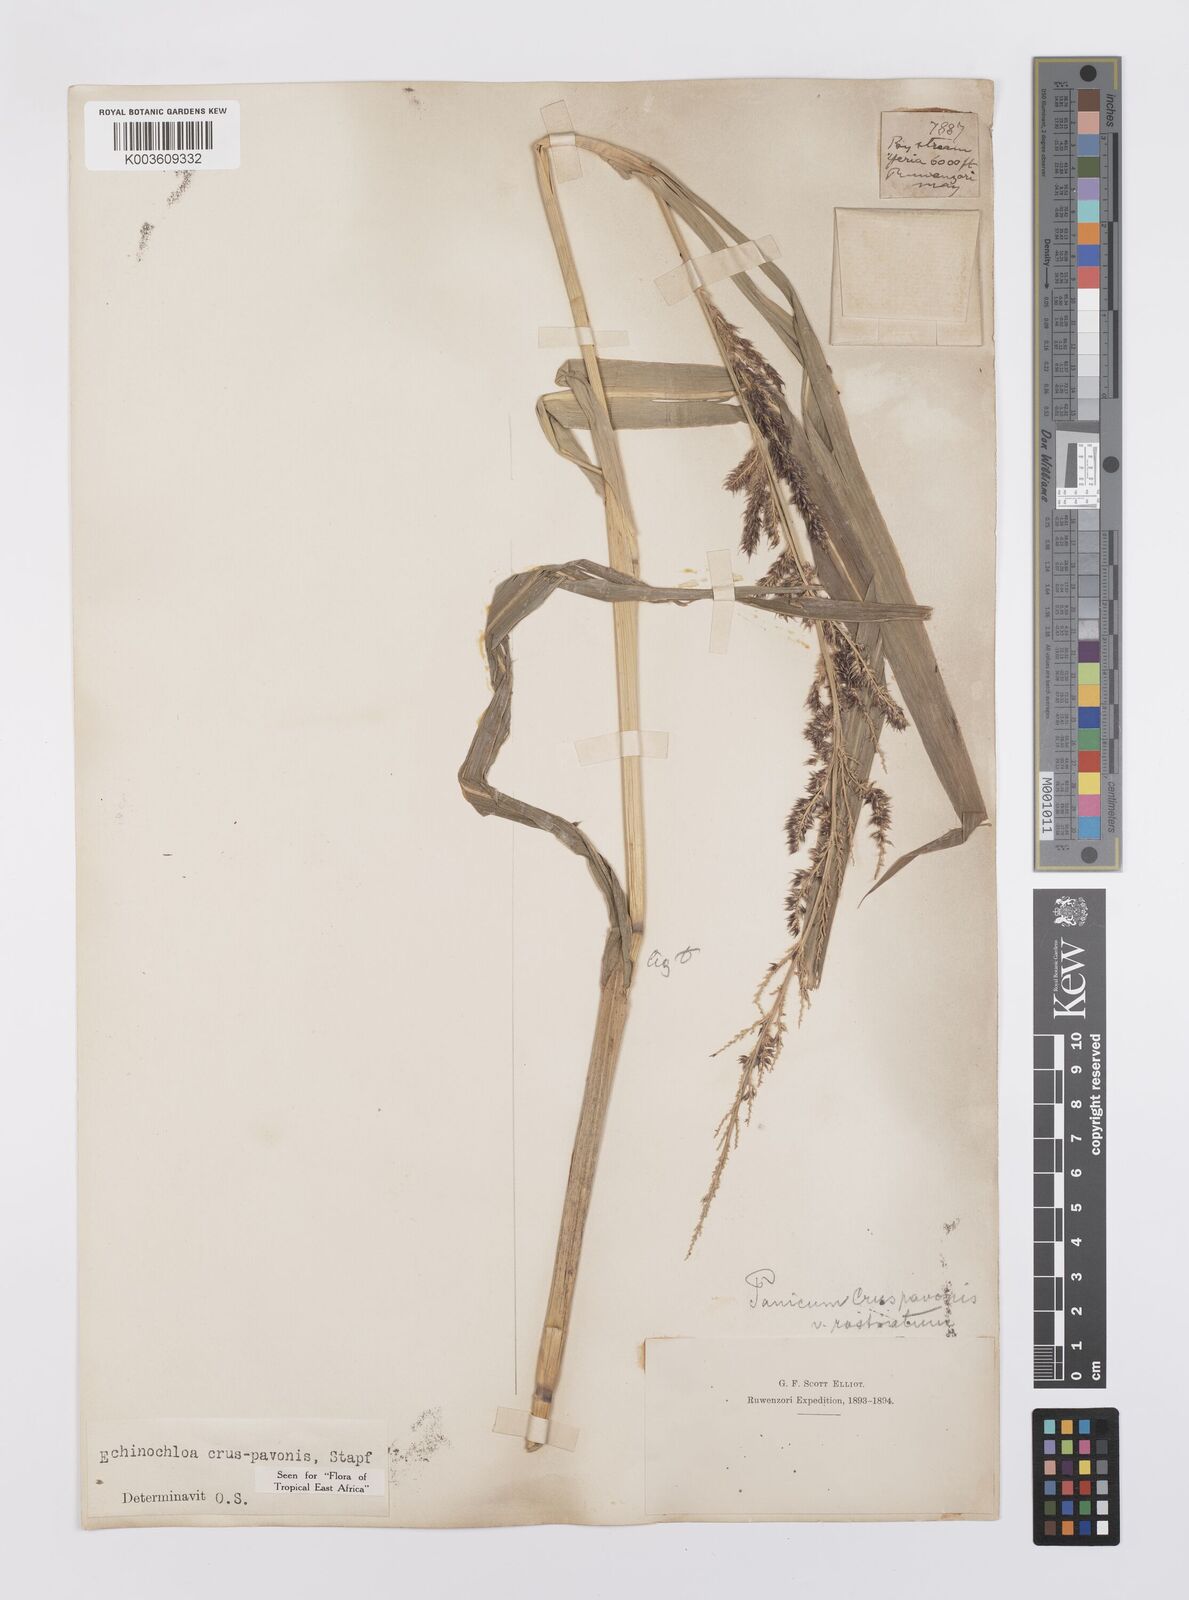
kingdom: Plantae
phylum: Tracheophyta
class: Liliopsida
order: Poales
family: Poaceae
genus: Echinochloa
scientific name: Echinochloa crus-pavonis
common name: Gulf cockspur grass
